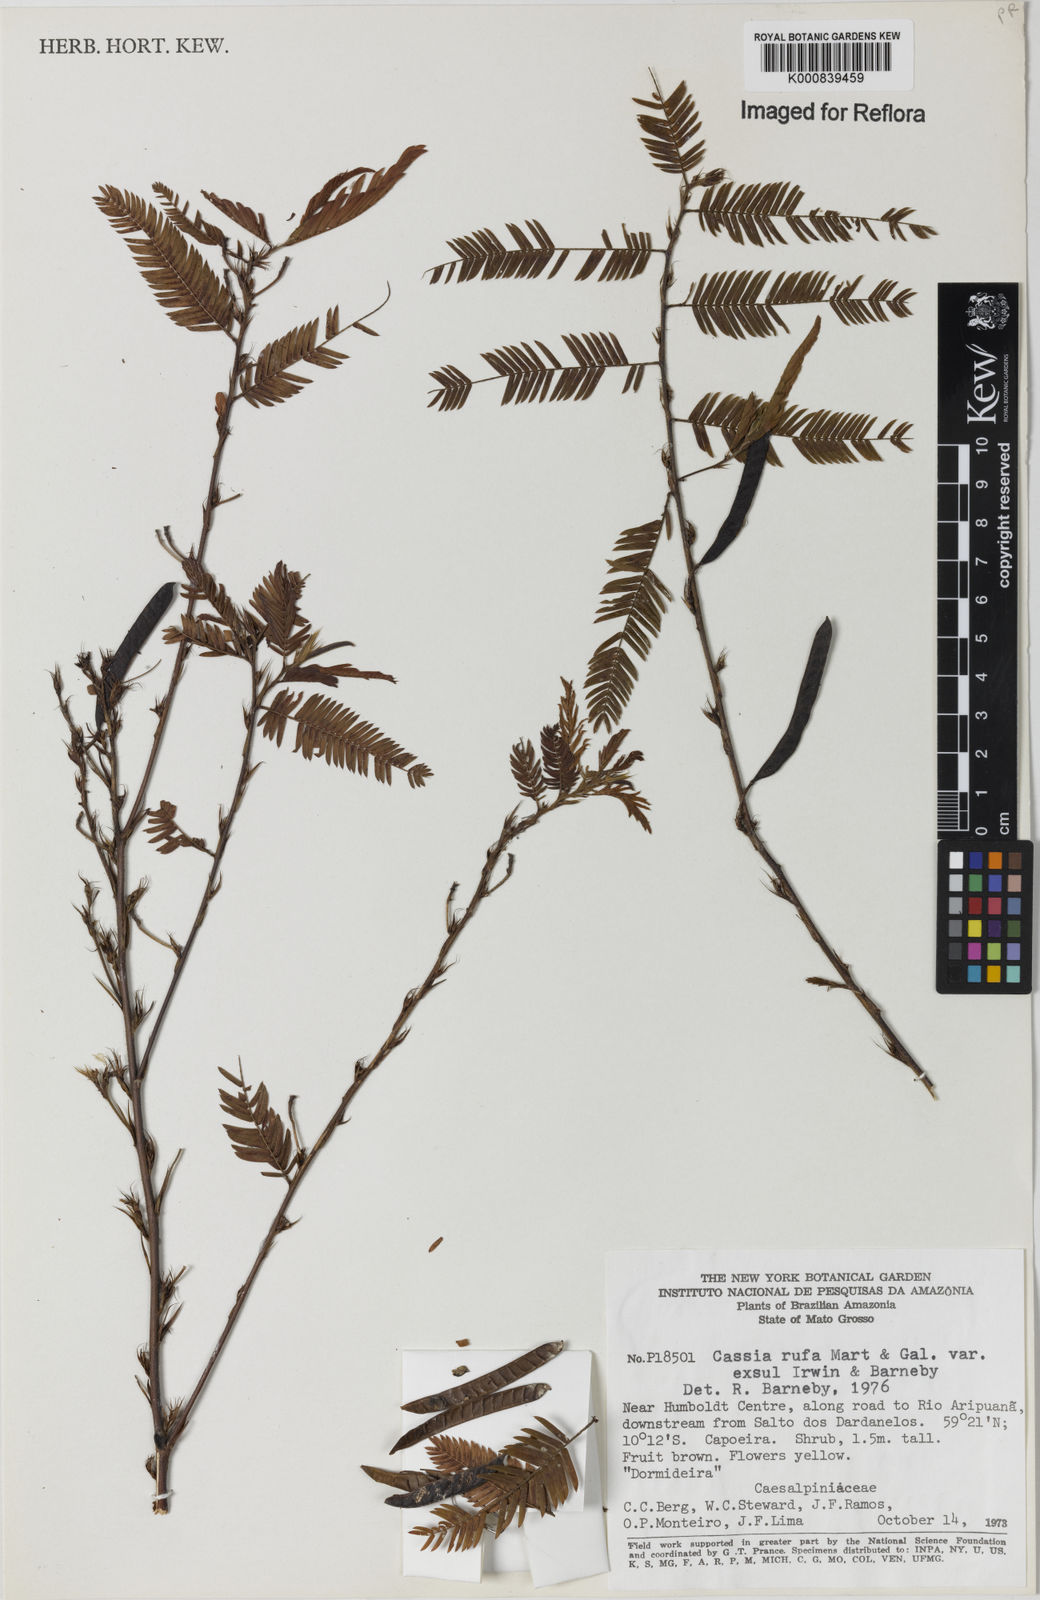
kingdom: Plantae
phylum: Tracheophyta
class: Magnoliopsida
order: Fabales
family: Fabaceae
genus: Chamaecrista
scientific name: Chamaecrista rufa
